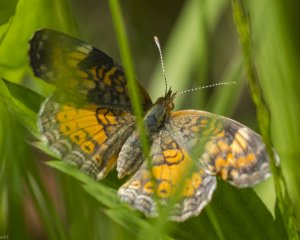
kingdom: Animalia
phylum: Arthropoda
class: Insecta
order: Lepidoptera
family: Nymphalidae
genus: Phyciodes
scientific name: Phyciodes tharos
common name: Northern Crescent
